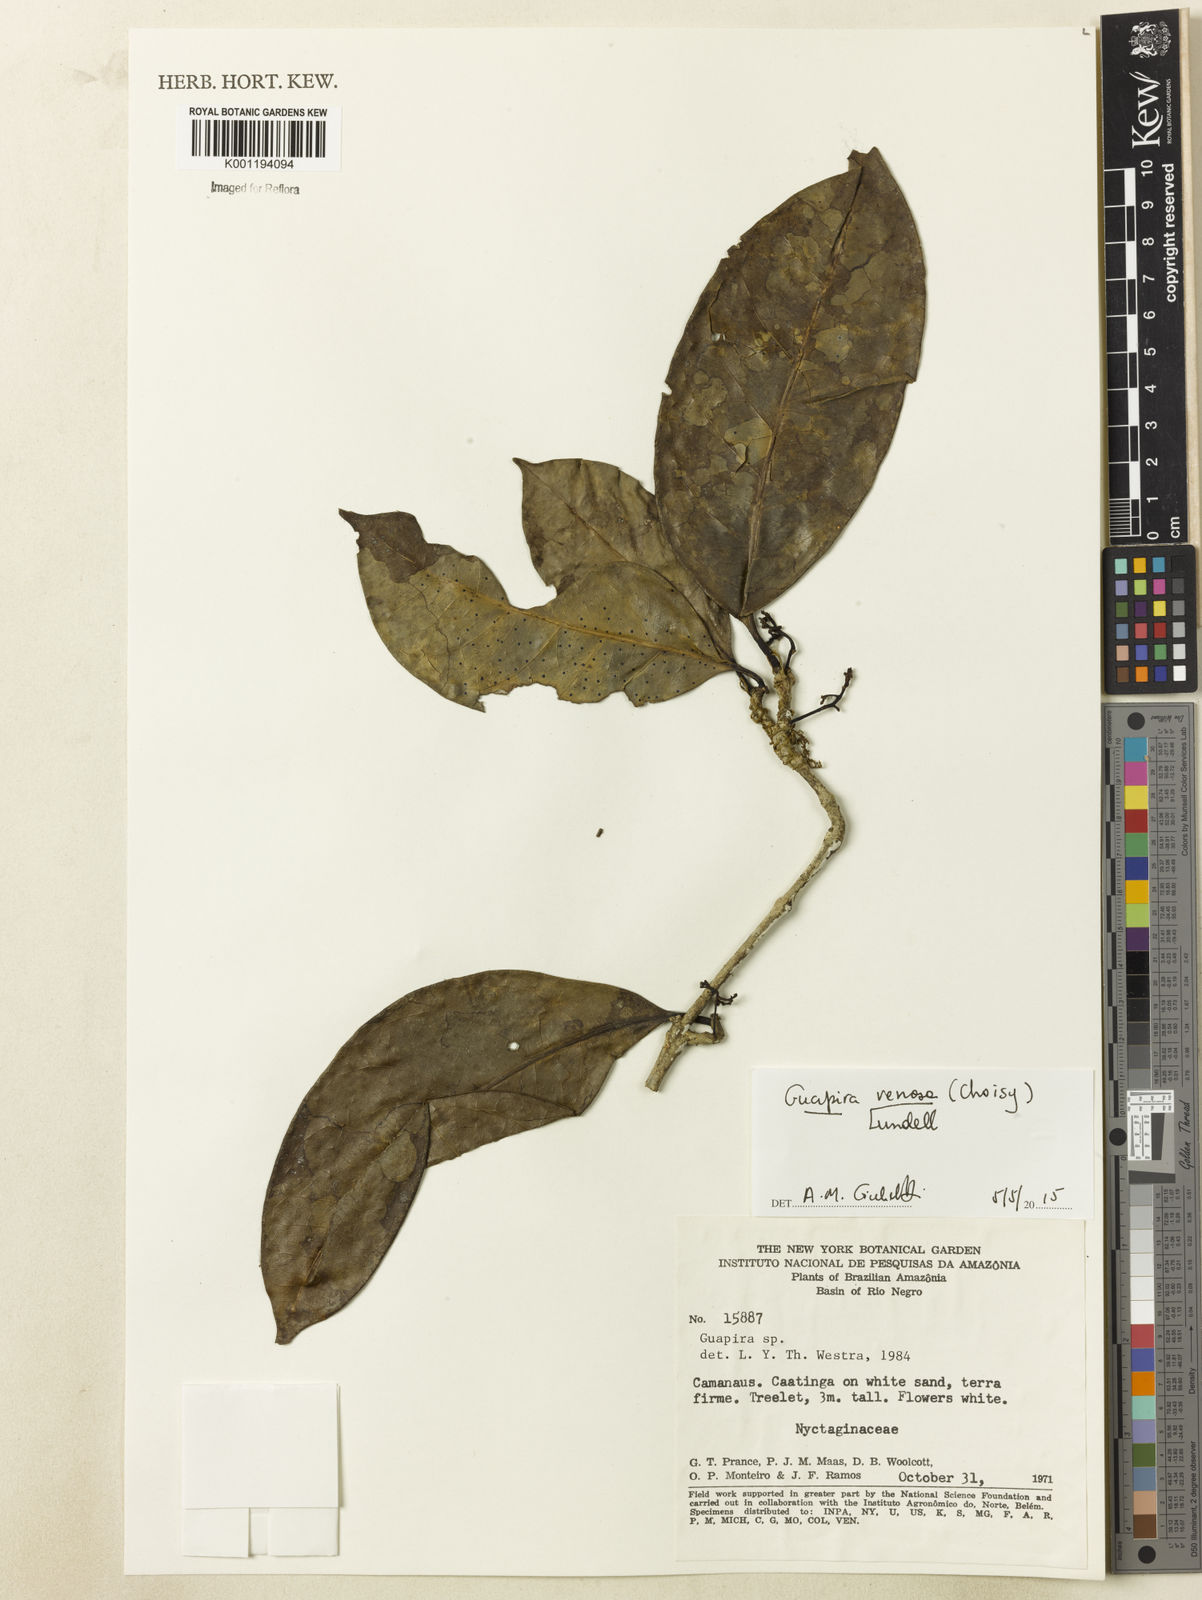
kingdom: Plantae
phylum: Tracheophyta
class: Magnoliopsida
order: Caryophyllales
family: Nyctaginaceae
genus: Guapira
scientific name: Guapira venosa
